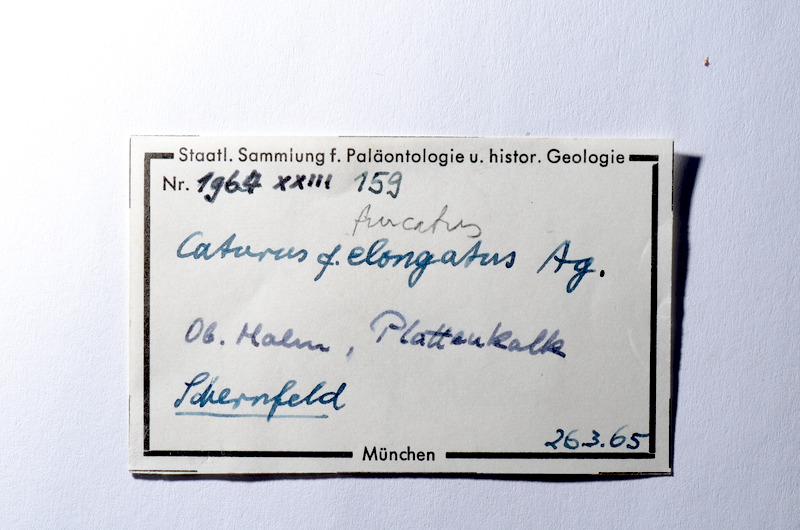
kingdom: Animalia
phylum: Chordata
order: Amiiformes
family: Caturidae
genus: Amblysemius
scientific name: Amblysemius bellicianus
